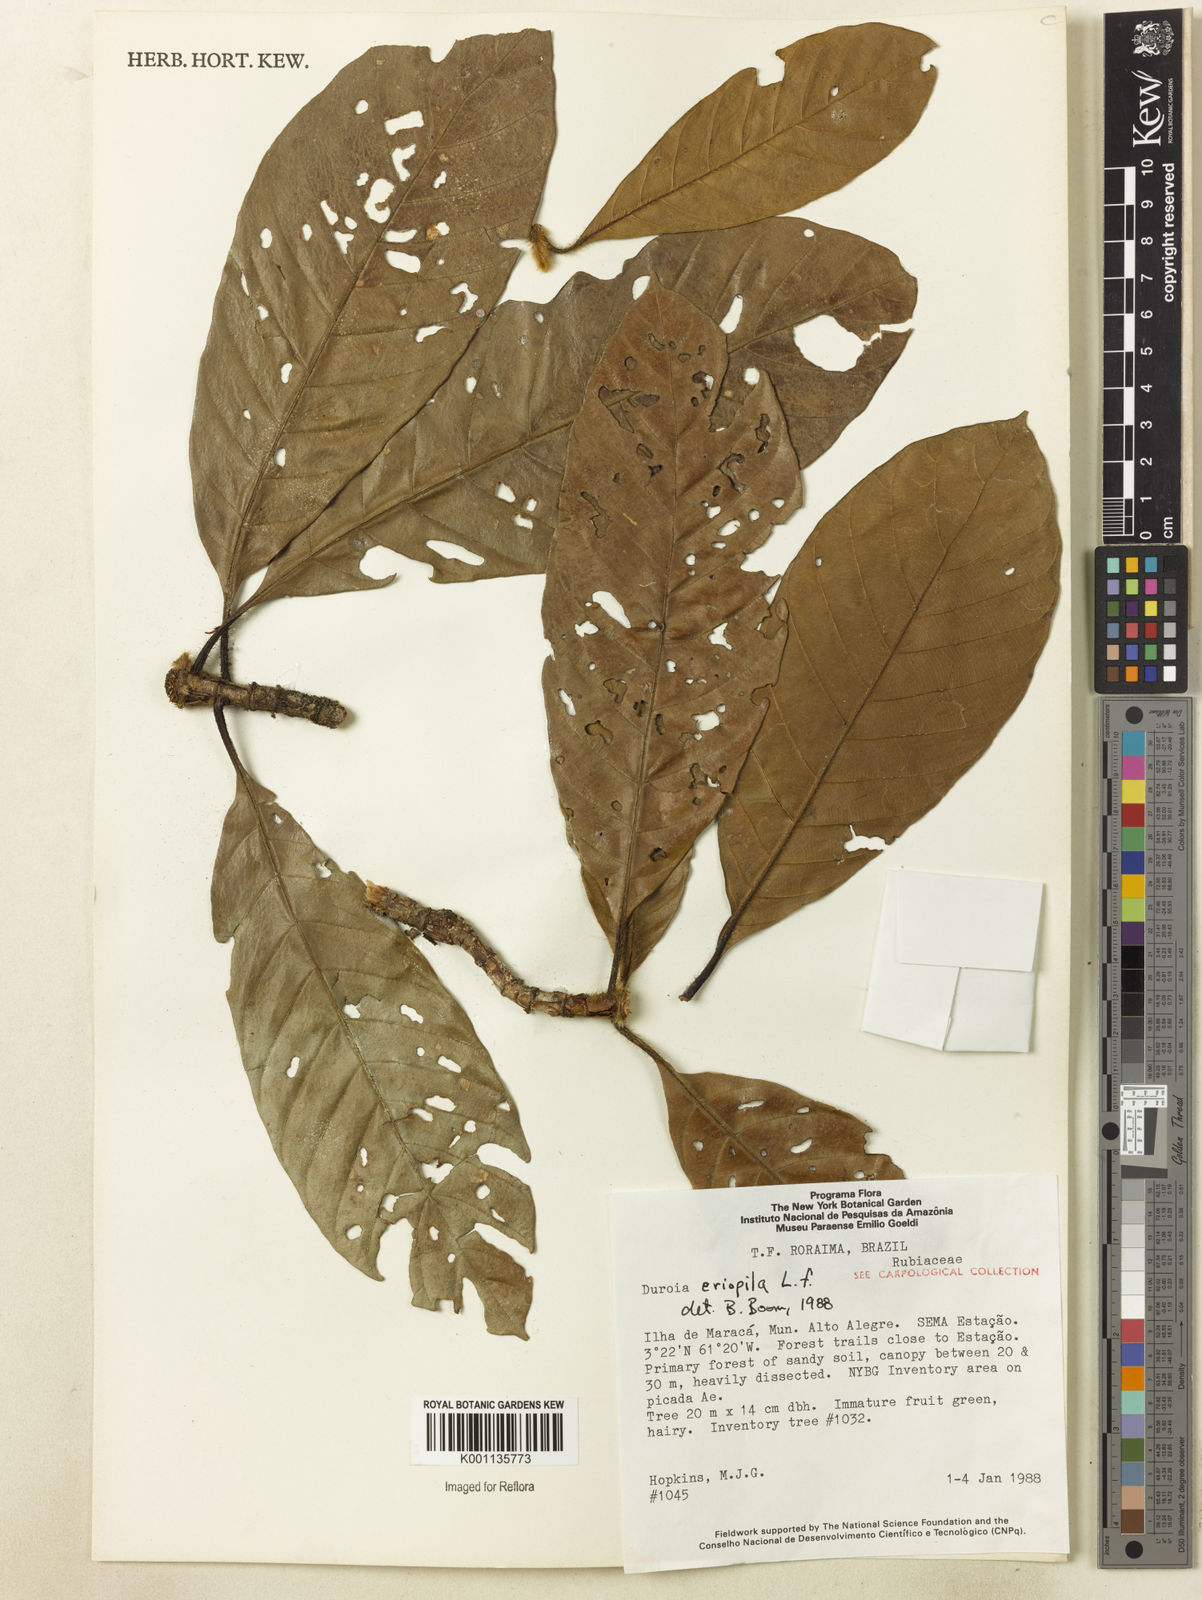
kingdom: Plantae
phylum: Tracheophyta
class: Magnoliopsida
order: Gentianales
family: Rubiaceae
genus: Duroia
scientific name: Duroia eriopila
